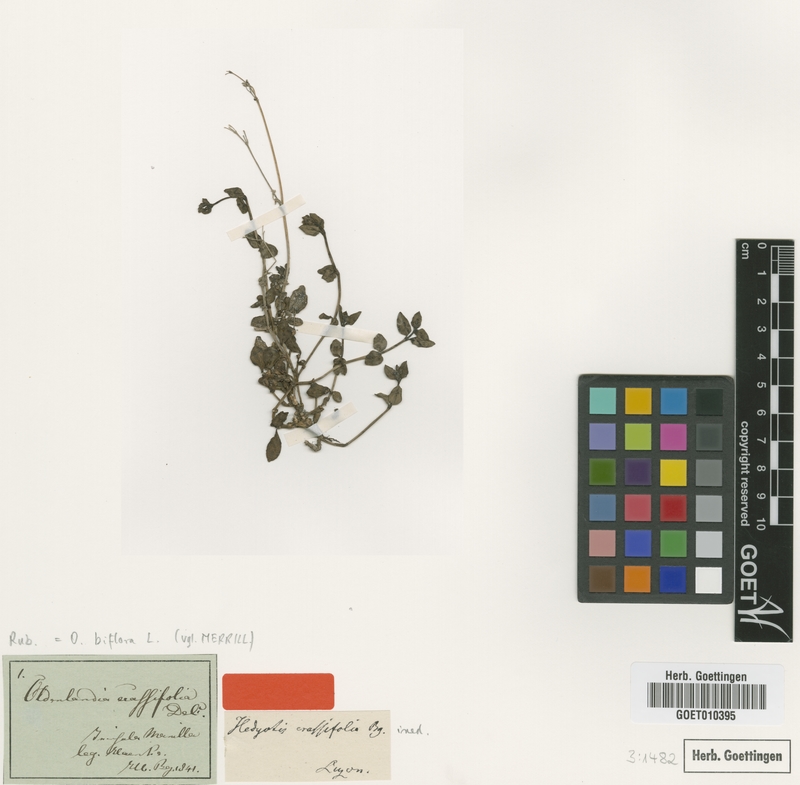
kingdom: Plantae
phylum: Tracheophyta
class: Magnoliopsida
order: Gentianales
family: Rubiaceae
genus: Leptopetalum
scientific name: Leptopetalum biflorum
